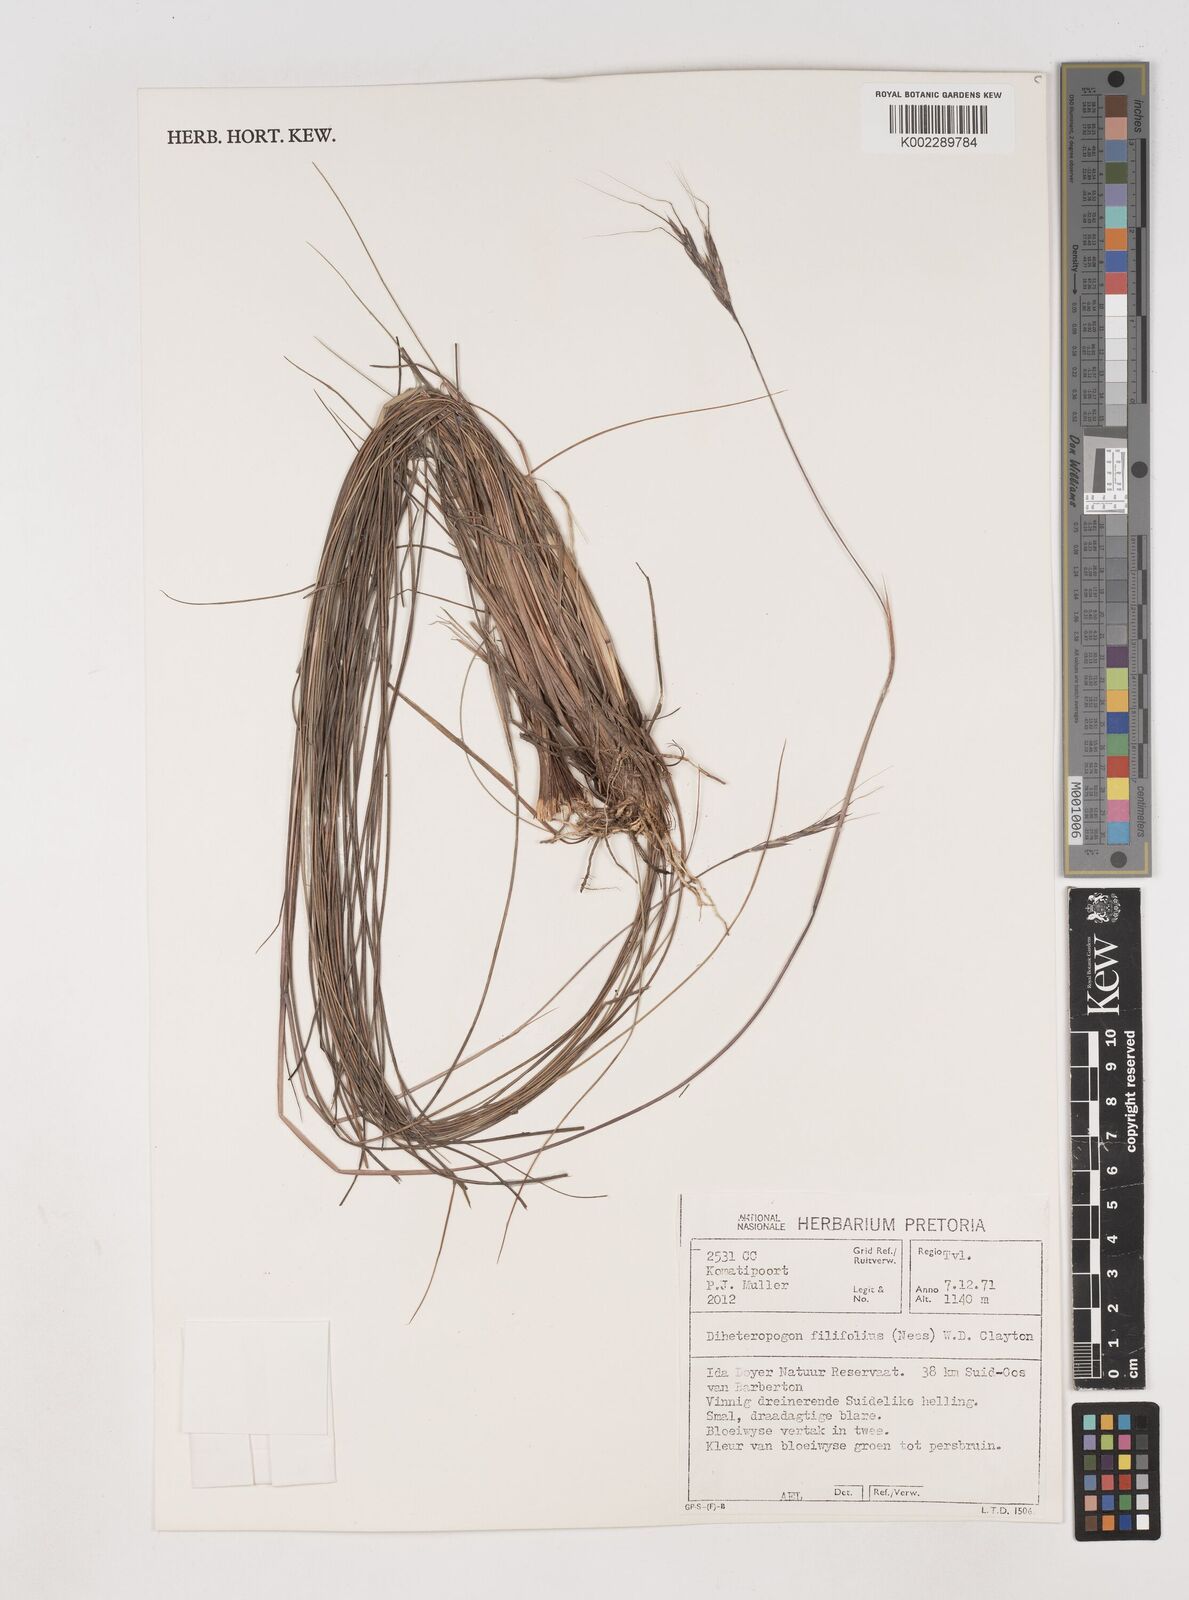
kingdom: Plantae
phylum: Tracheophyta
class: Liliopsida
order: Poales
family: Poaceae
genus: Diheteropogon
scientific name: Diheteropogon filifolius
